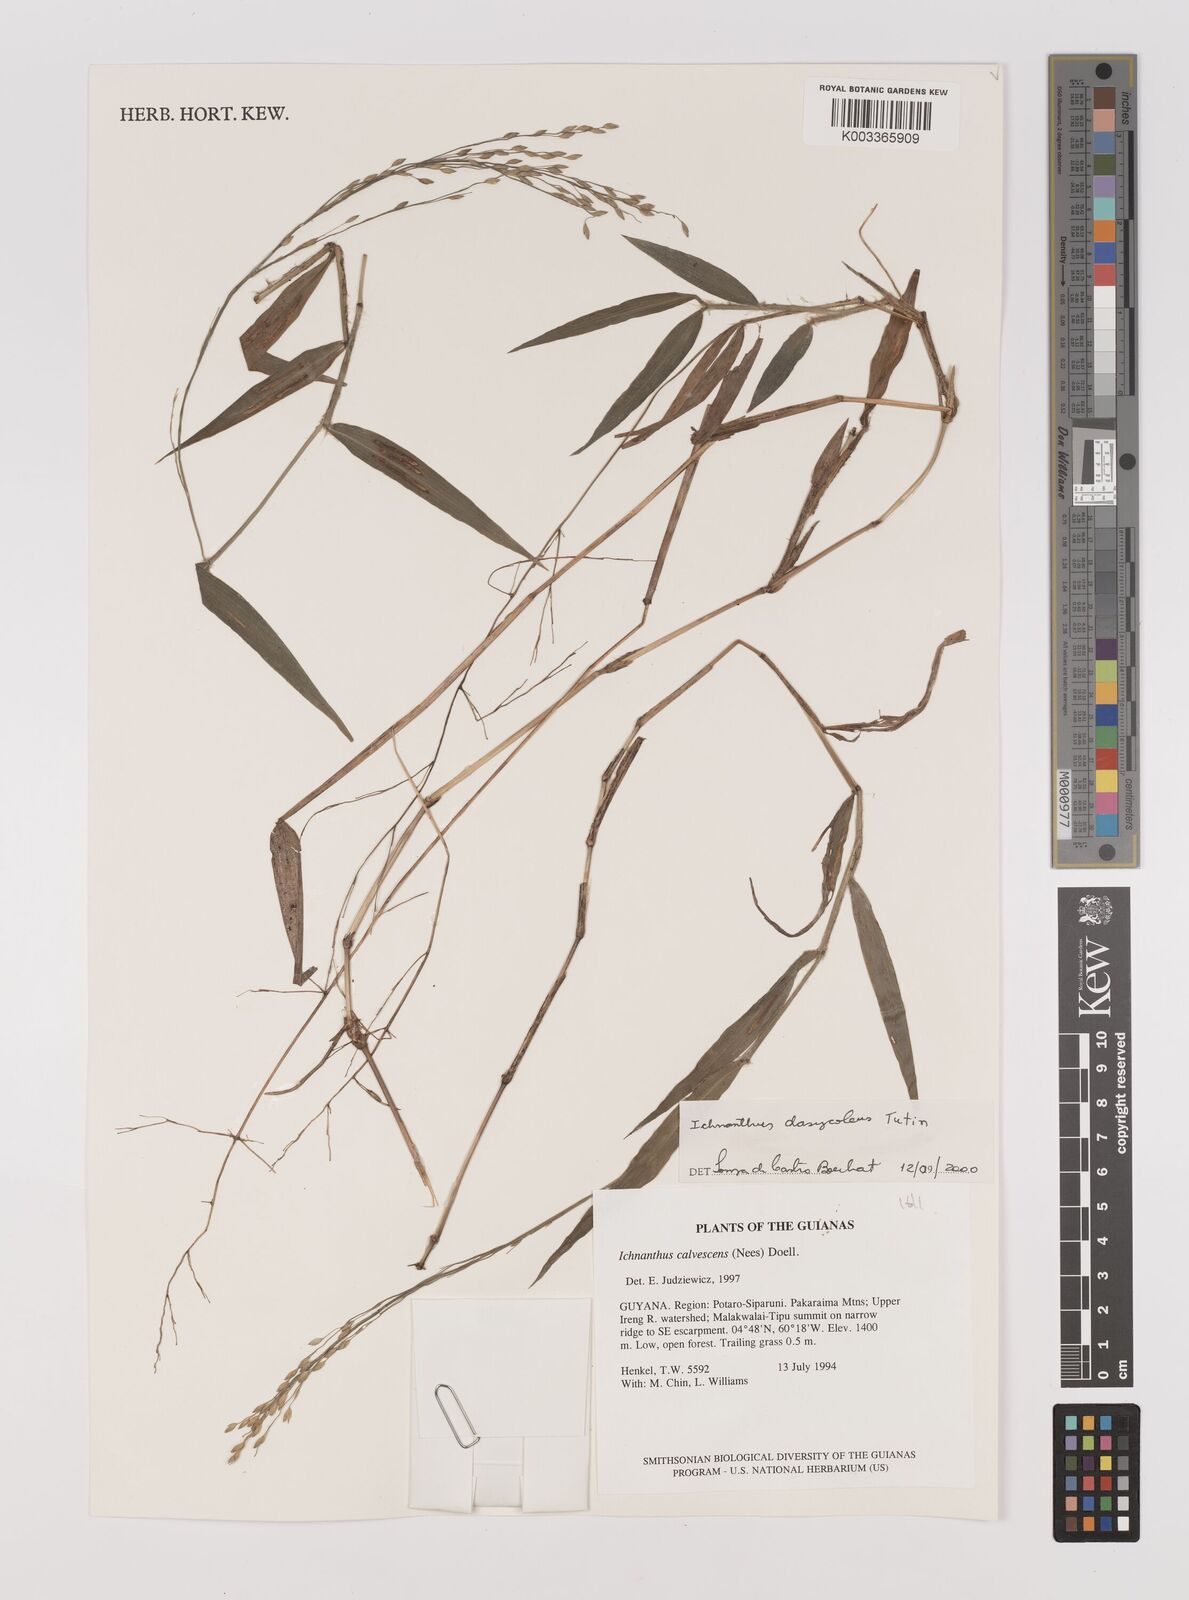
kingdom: Plantae
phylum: Tracheophyta
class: Liliopsida
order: Poales
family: Poaceae
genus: Ichnanthus
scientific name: Ichnanthus dasycoleus
